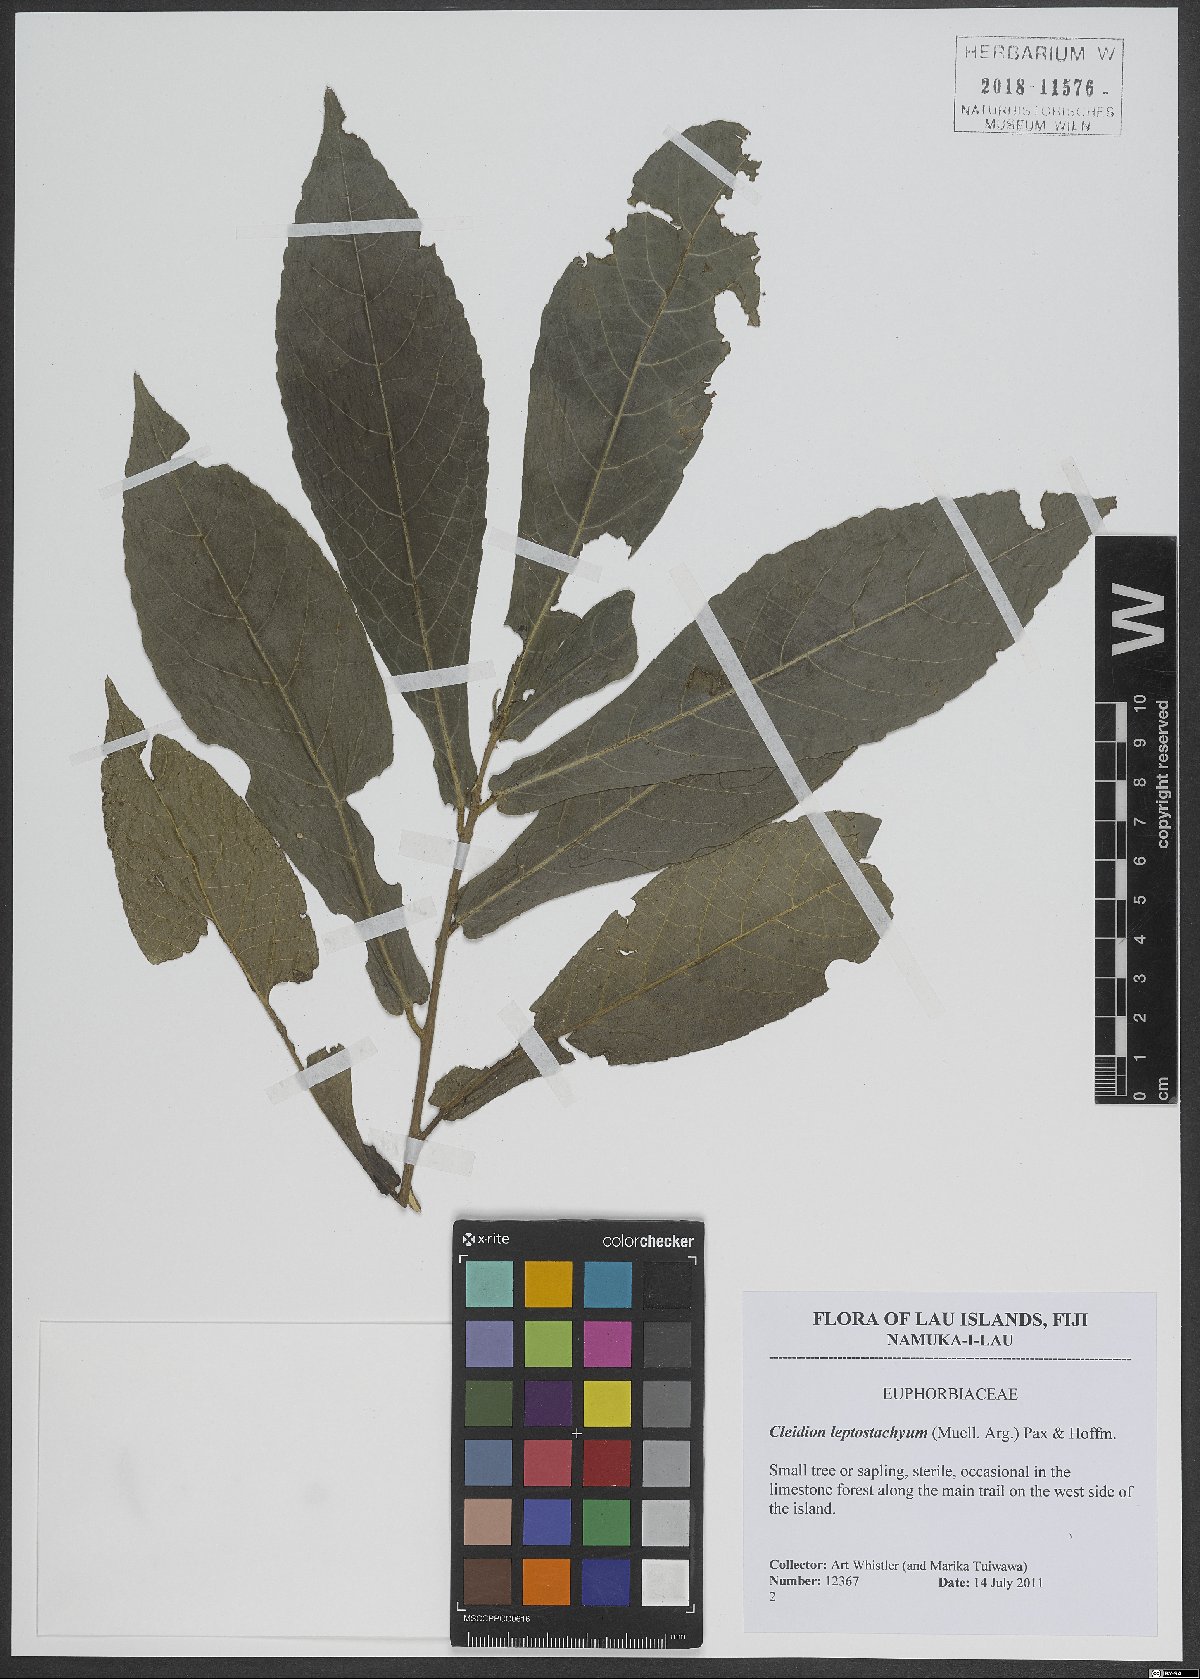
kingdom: Plantae
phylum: Tracheophyta
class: Magnoliopsida
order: Malpighiales
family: Euphorbiaceae
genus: Cleidion
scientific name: Cleidion leptostachyum
